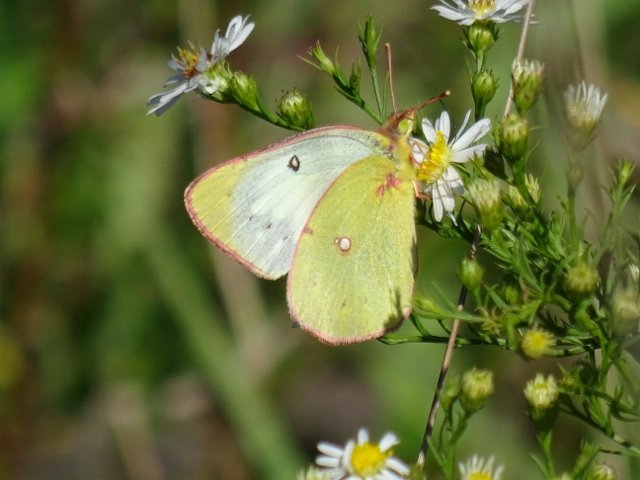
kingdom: Animalia
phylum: Arthropoda
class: Insecta
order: Lepidoptera
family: Pieridae
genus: Colias
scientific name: Colias philodice
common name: Clouded Sulphur
